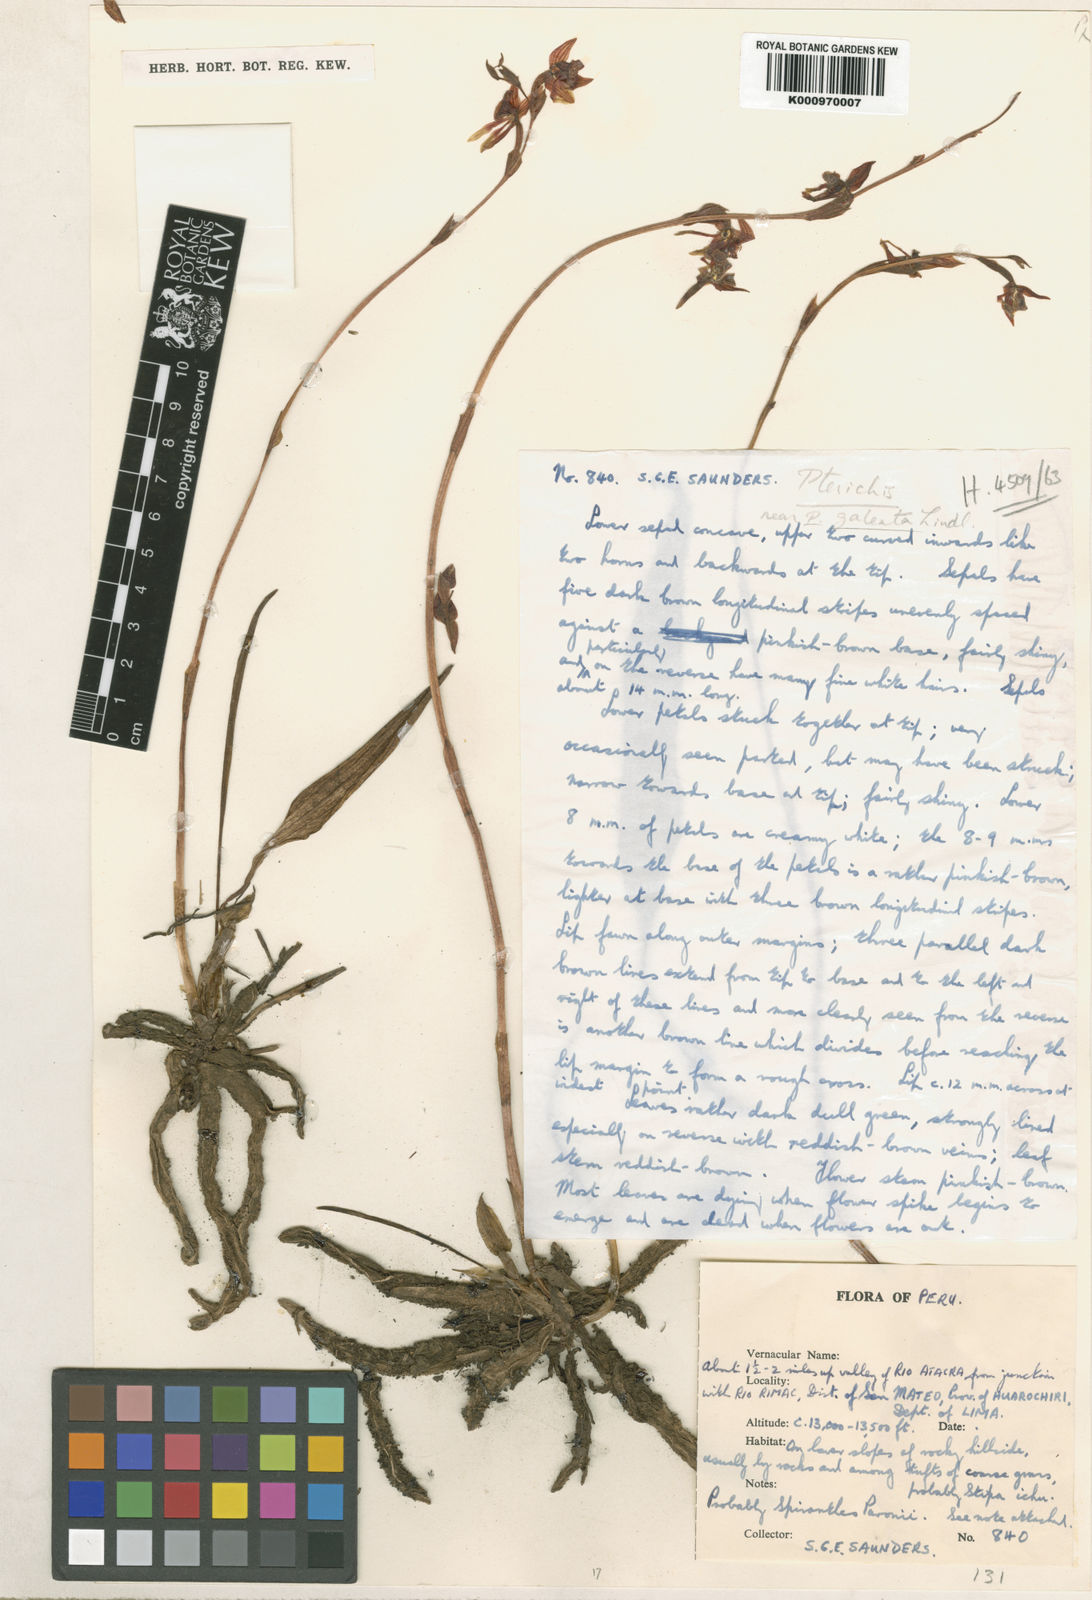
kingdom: Plantae
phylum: Tracheophyta
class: Liliopsida
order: Asparagales
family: Orchidaceae
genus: Pterichis
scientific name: Pterichis saundersii
